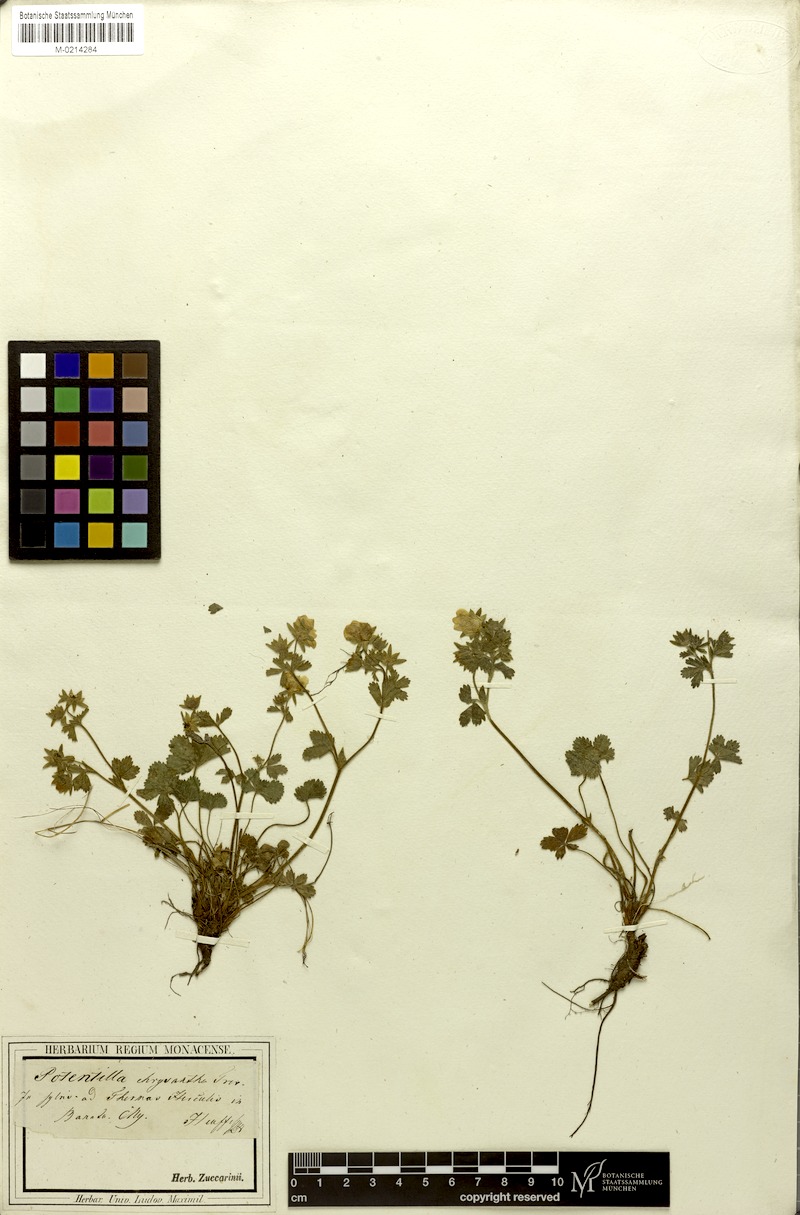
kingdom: Plantae
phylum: Tracheophyta
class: Magnoliopsida
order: Rosales
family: Rosaceae
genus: Potentilla
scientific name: Potentilla chrysantha
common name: Thuringian cinquefoil
